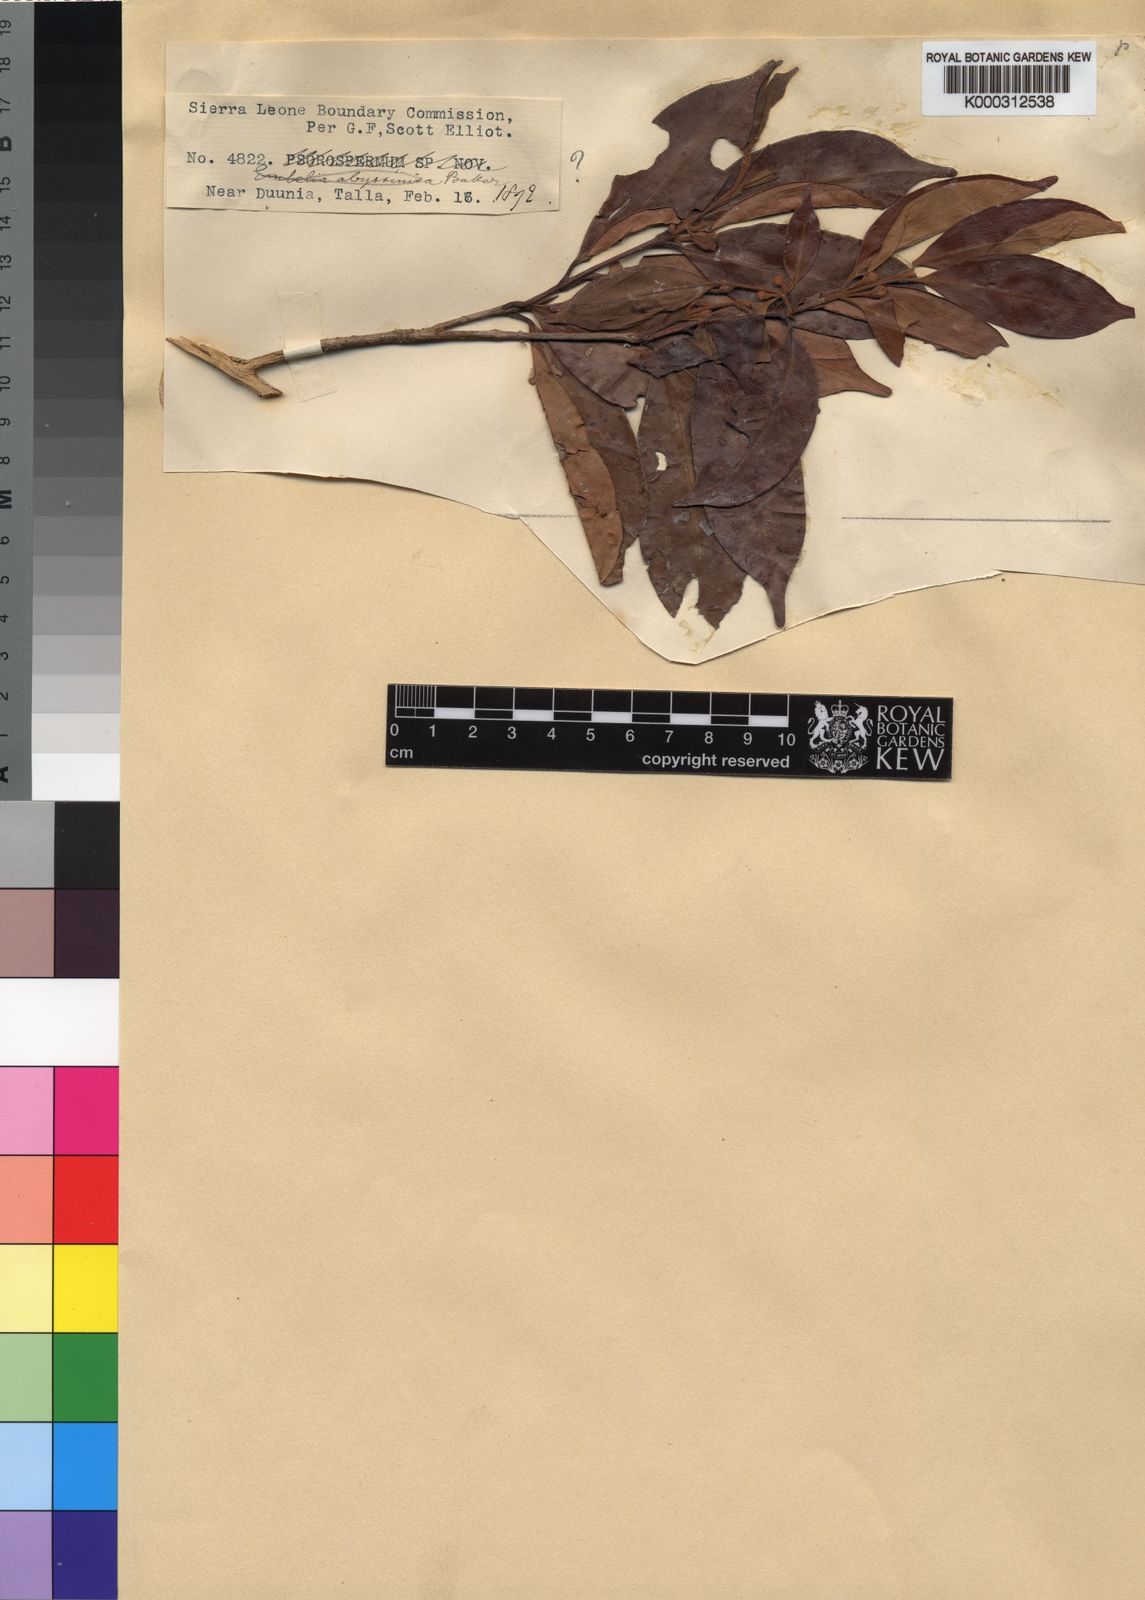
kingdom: Plantae
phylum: Tracheophyta
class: Magnoliopsida
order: Myrtales
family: Myrtaceae
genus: Eugenia
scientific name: Eugenia elliotii
